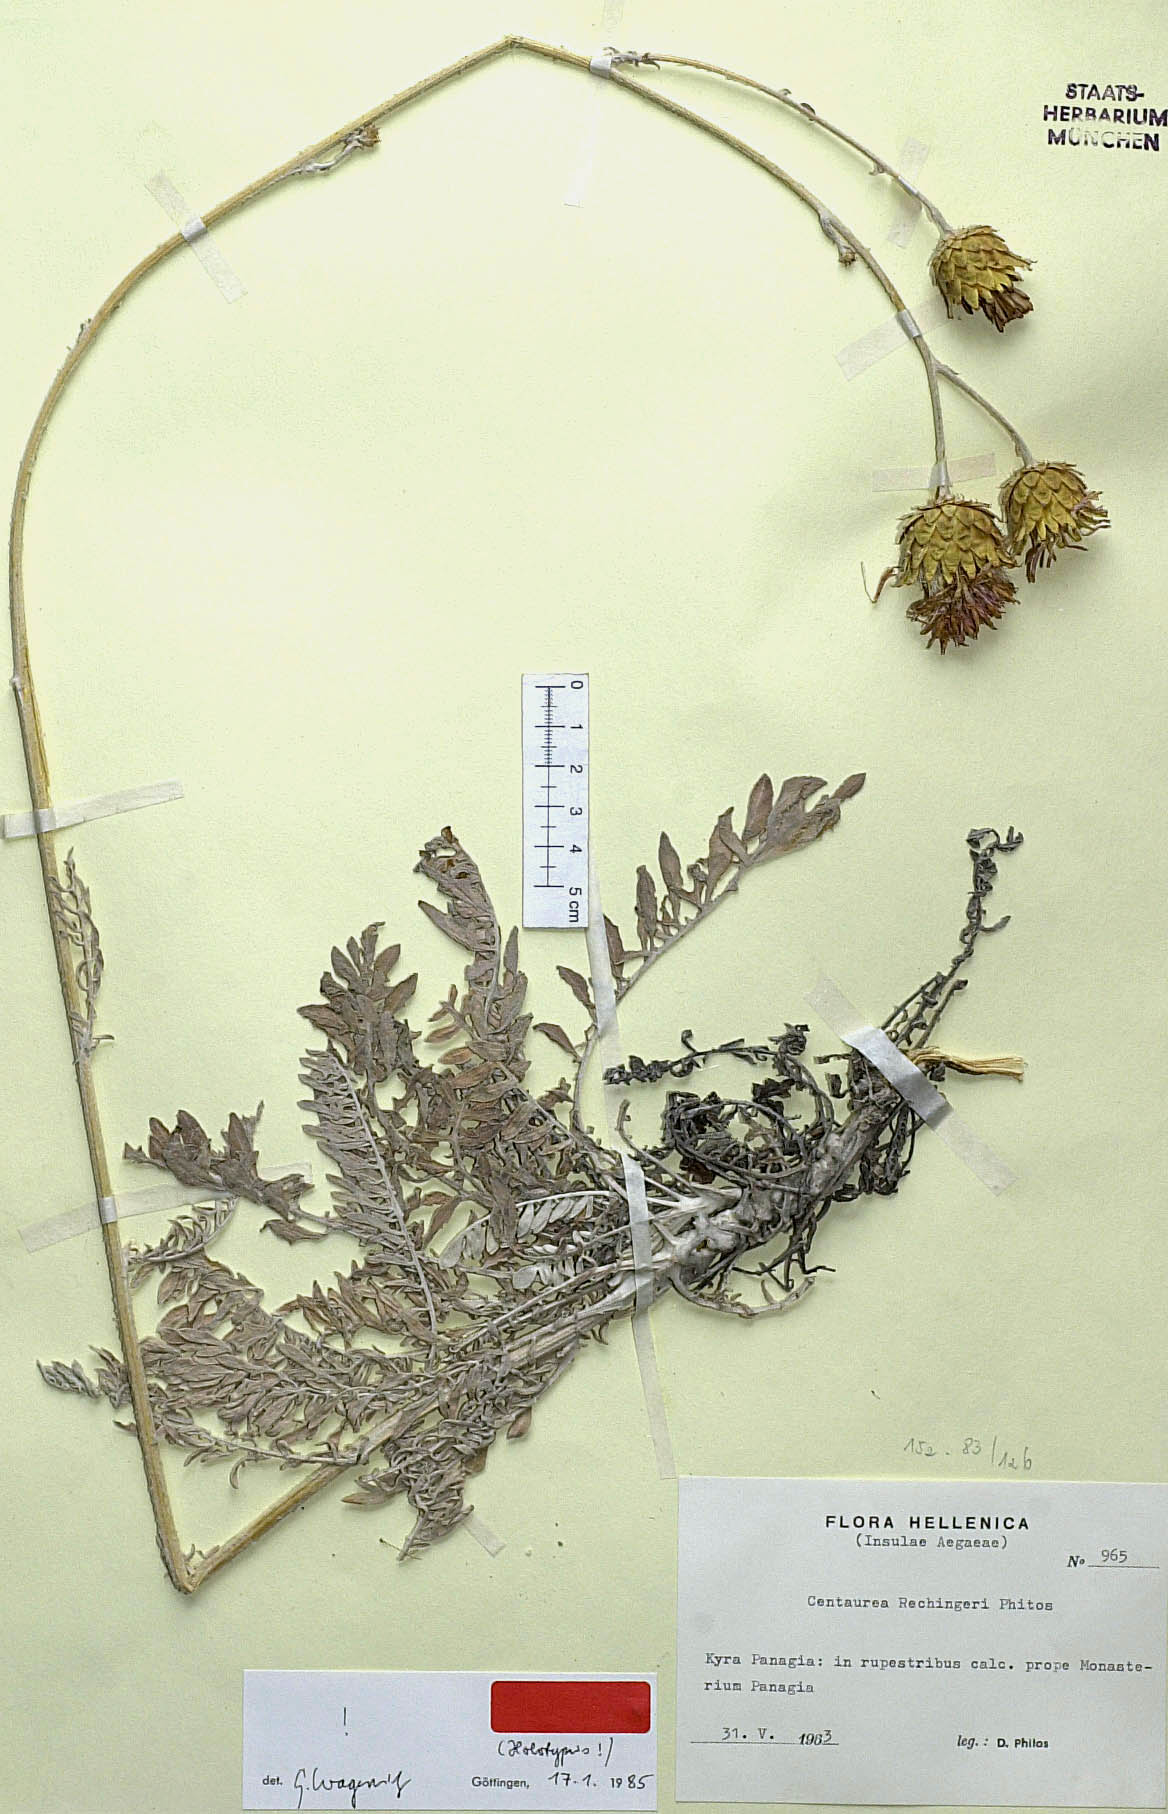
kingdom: Plantae
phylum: Tracheophyta
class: Magnoliopsida
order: Asterales
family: Asteraceae
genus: Centaurea
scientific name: Centaurea rechingeri
